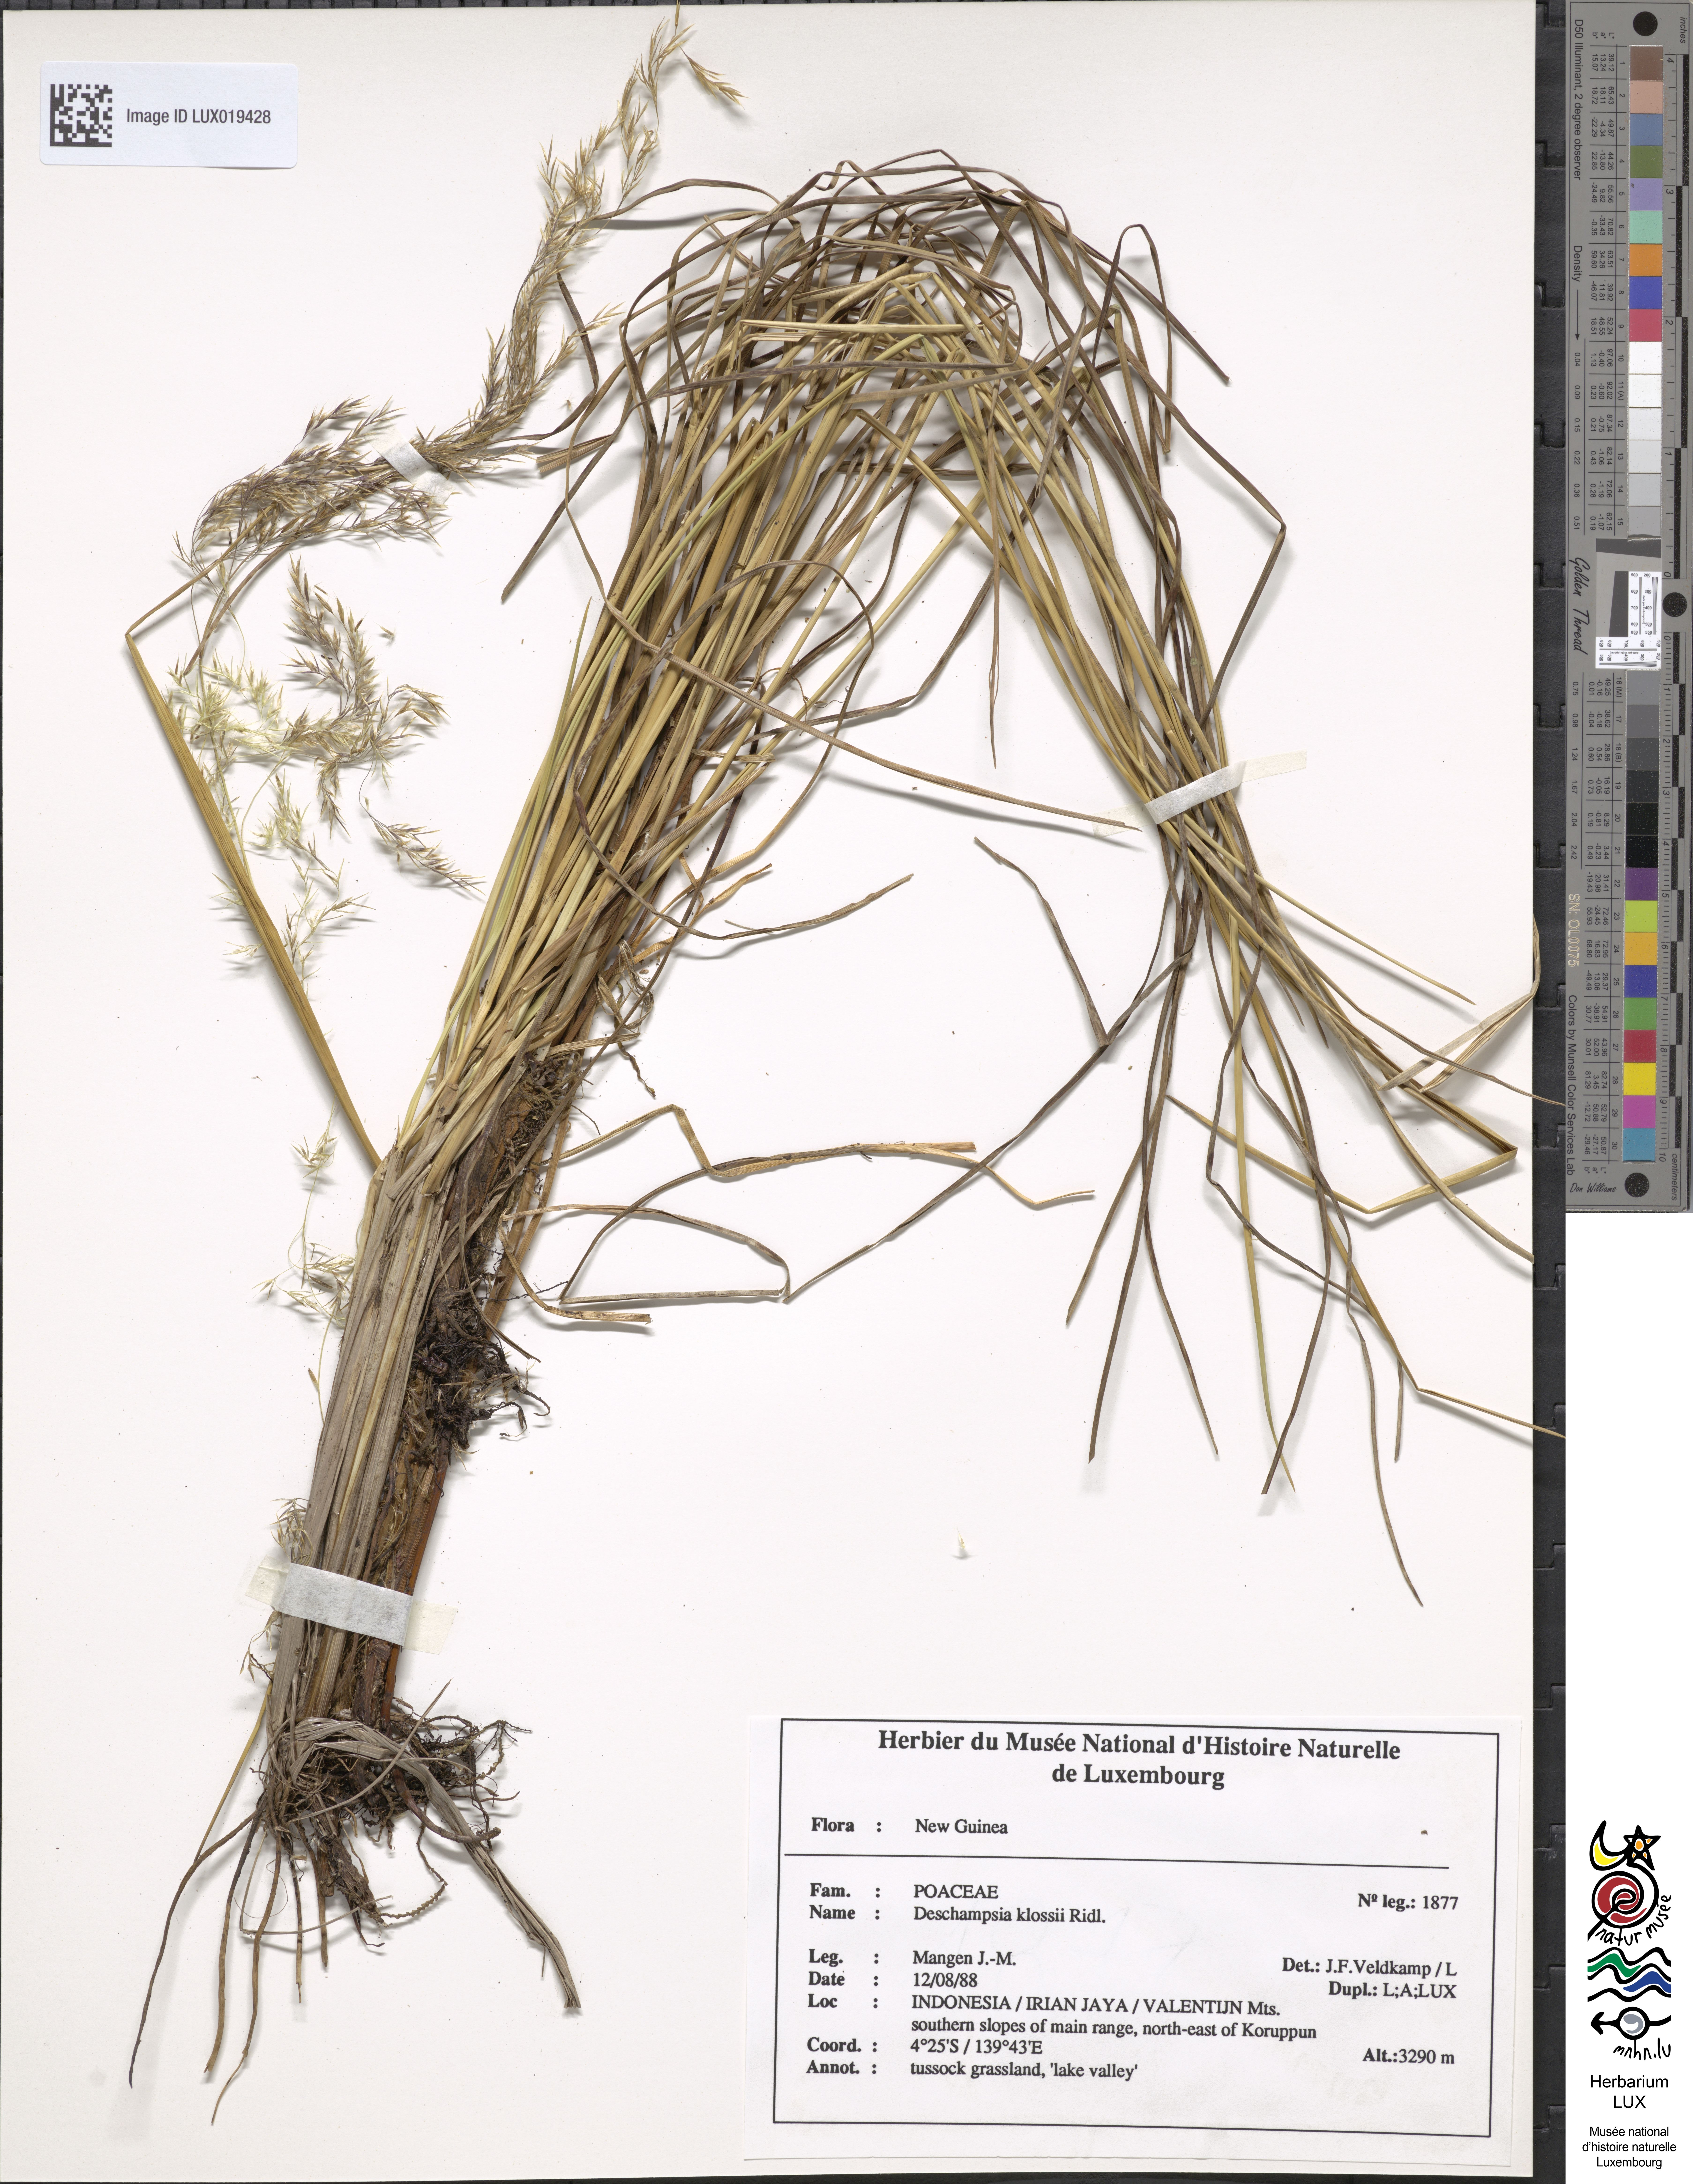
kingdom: Plantae
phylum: Tracheophyta
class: Liliopsida
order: Poales
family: Poaceae
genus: Deschampsia
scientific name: Deschampsia klossii
